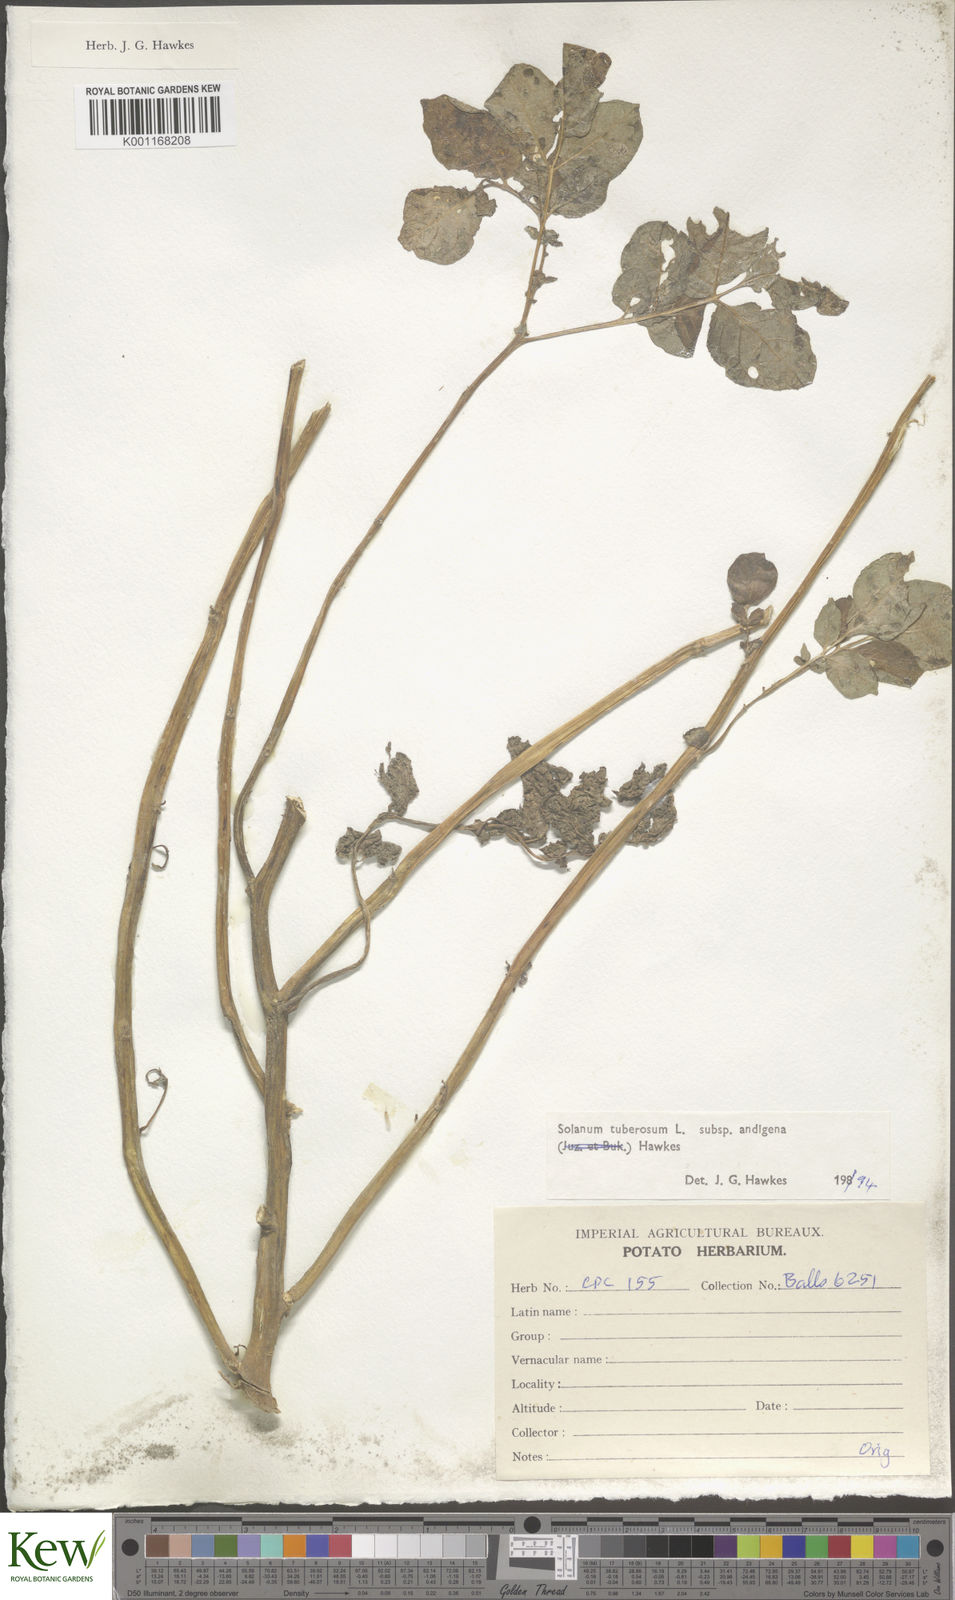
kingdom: Plantae
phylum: Tracheophyta
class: Magnoliopsida
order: Solanales
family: Solanaceae
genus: Solanum
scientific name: Solanum tuberosum
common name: Potato
